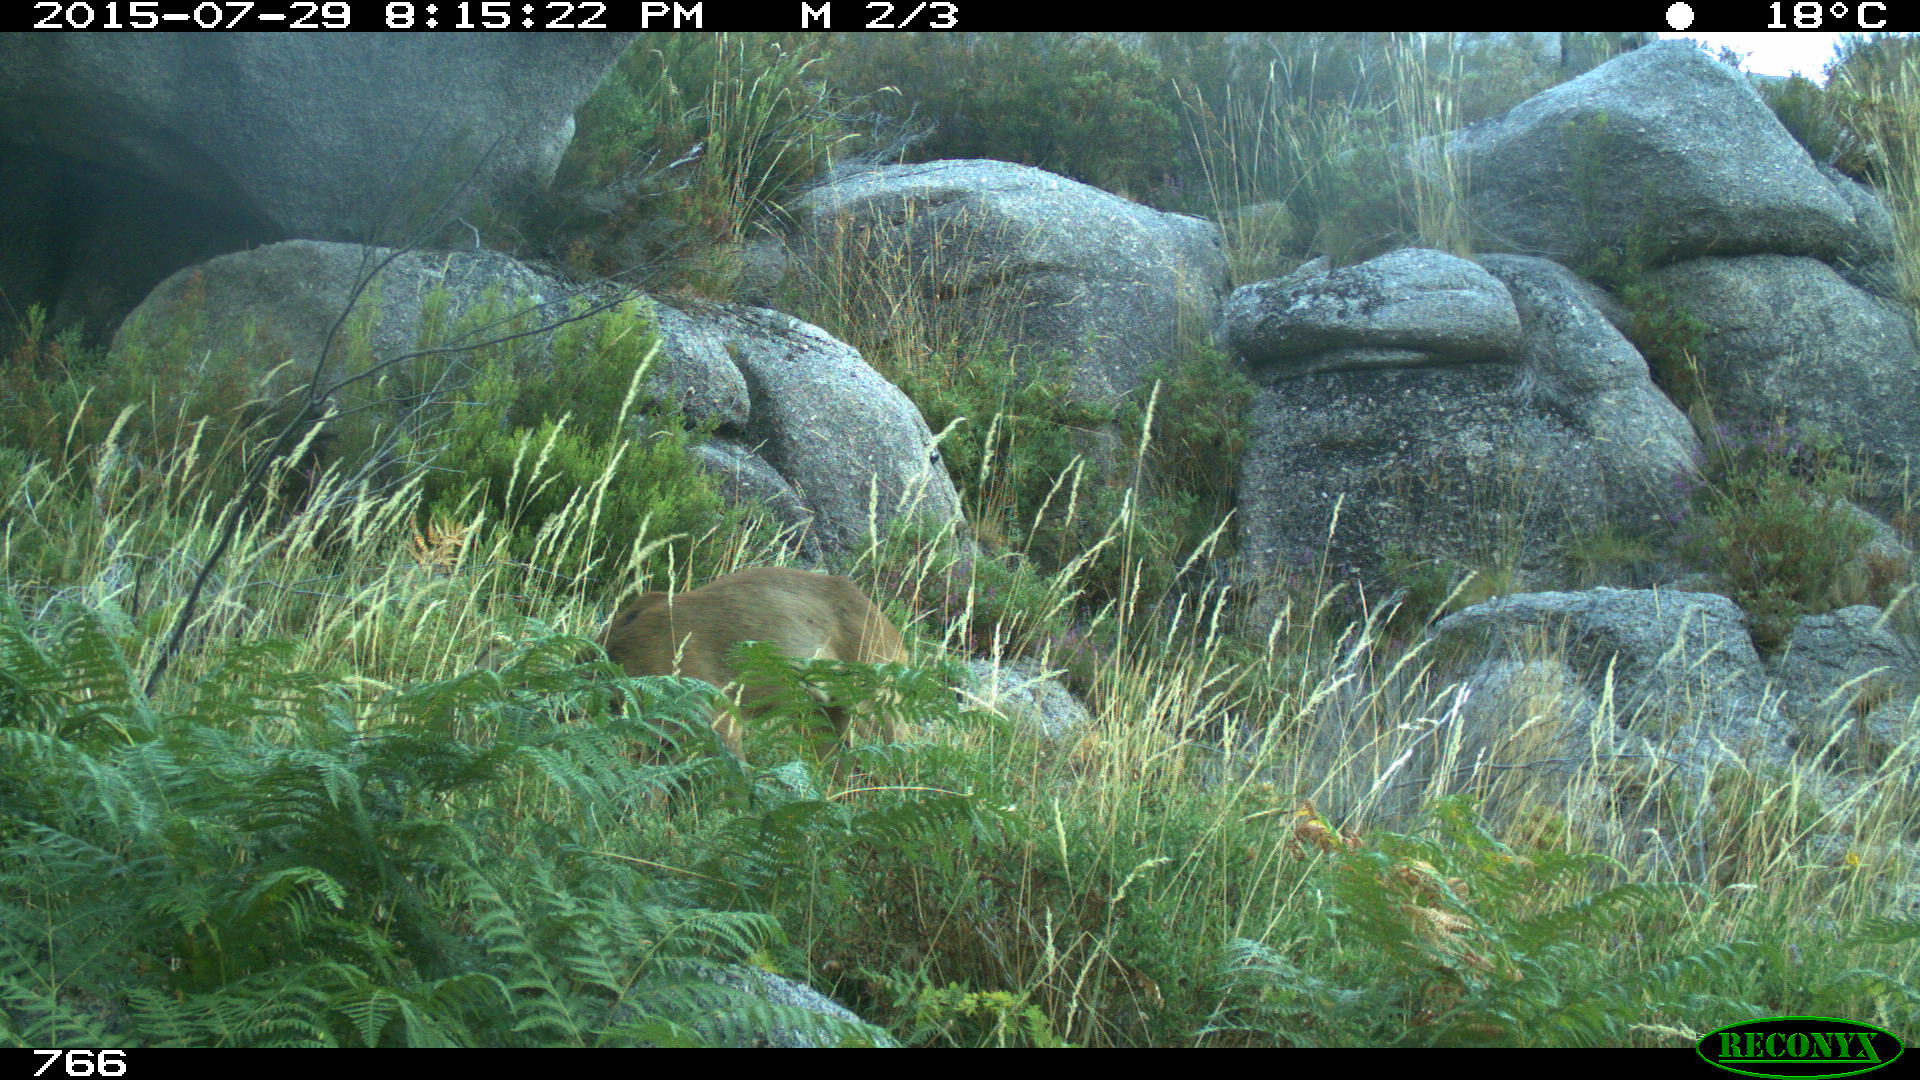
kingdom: Animalia
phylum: Chordata
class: Mammalia
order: Artiodactyla
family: Cervidae
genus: Capreolus
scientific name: Capreolus capreolus
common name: Western roe deer
